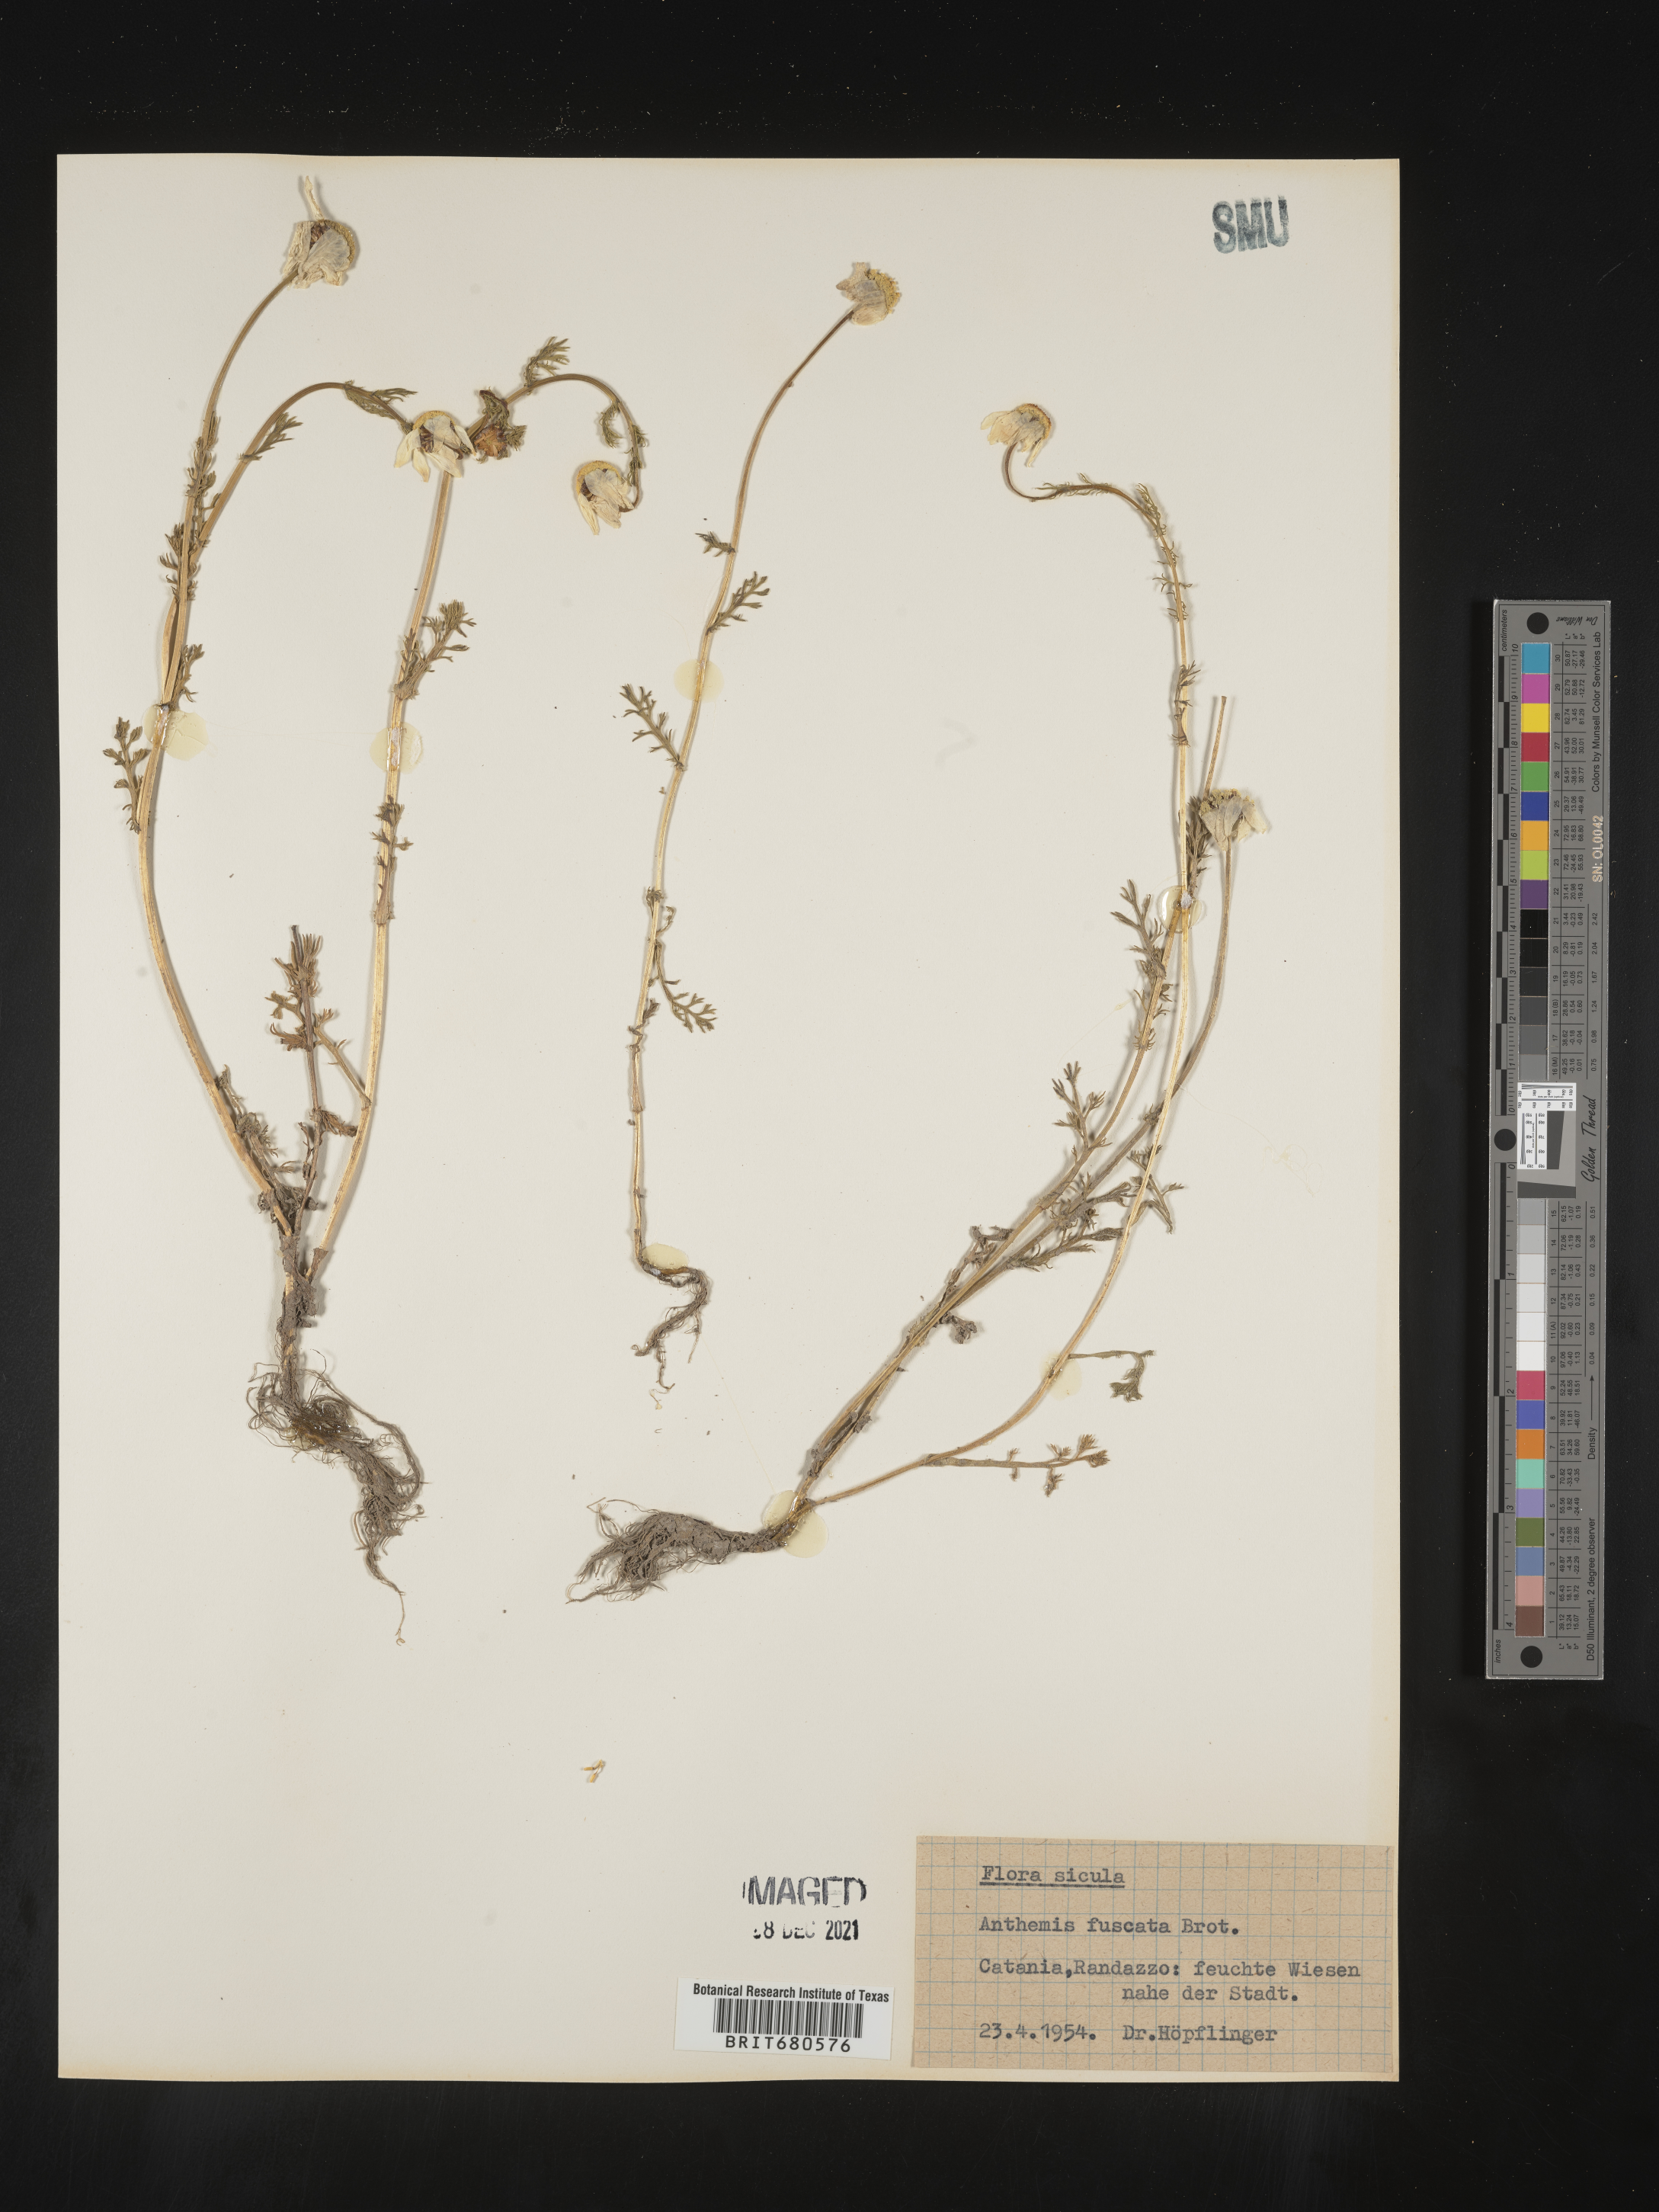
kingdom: Plantae
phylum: Tracheophyta
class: Magnoliopsida
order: Asterales
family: Asteraceae
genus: Anthemis
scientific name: Anthemis
